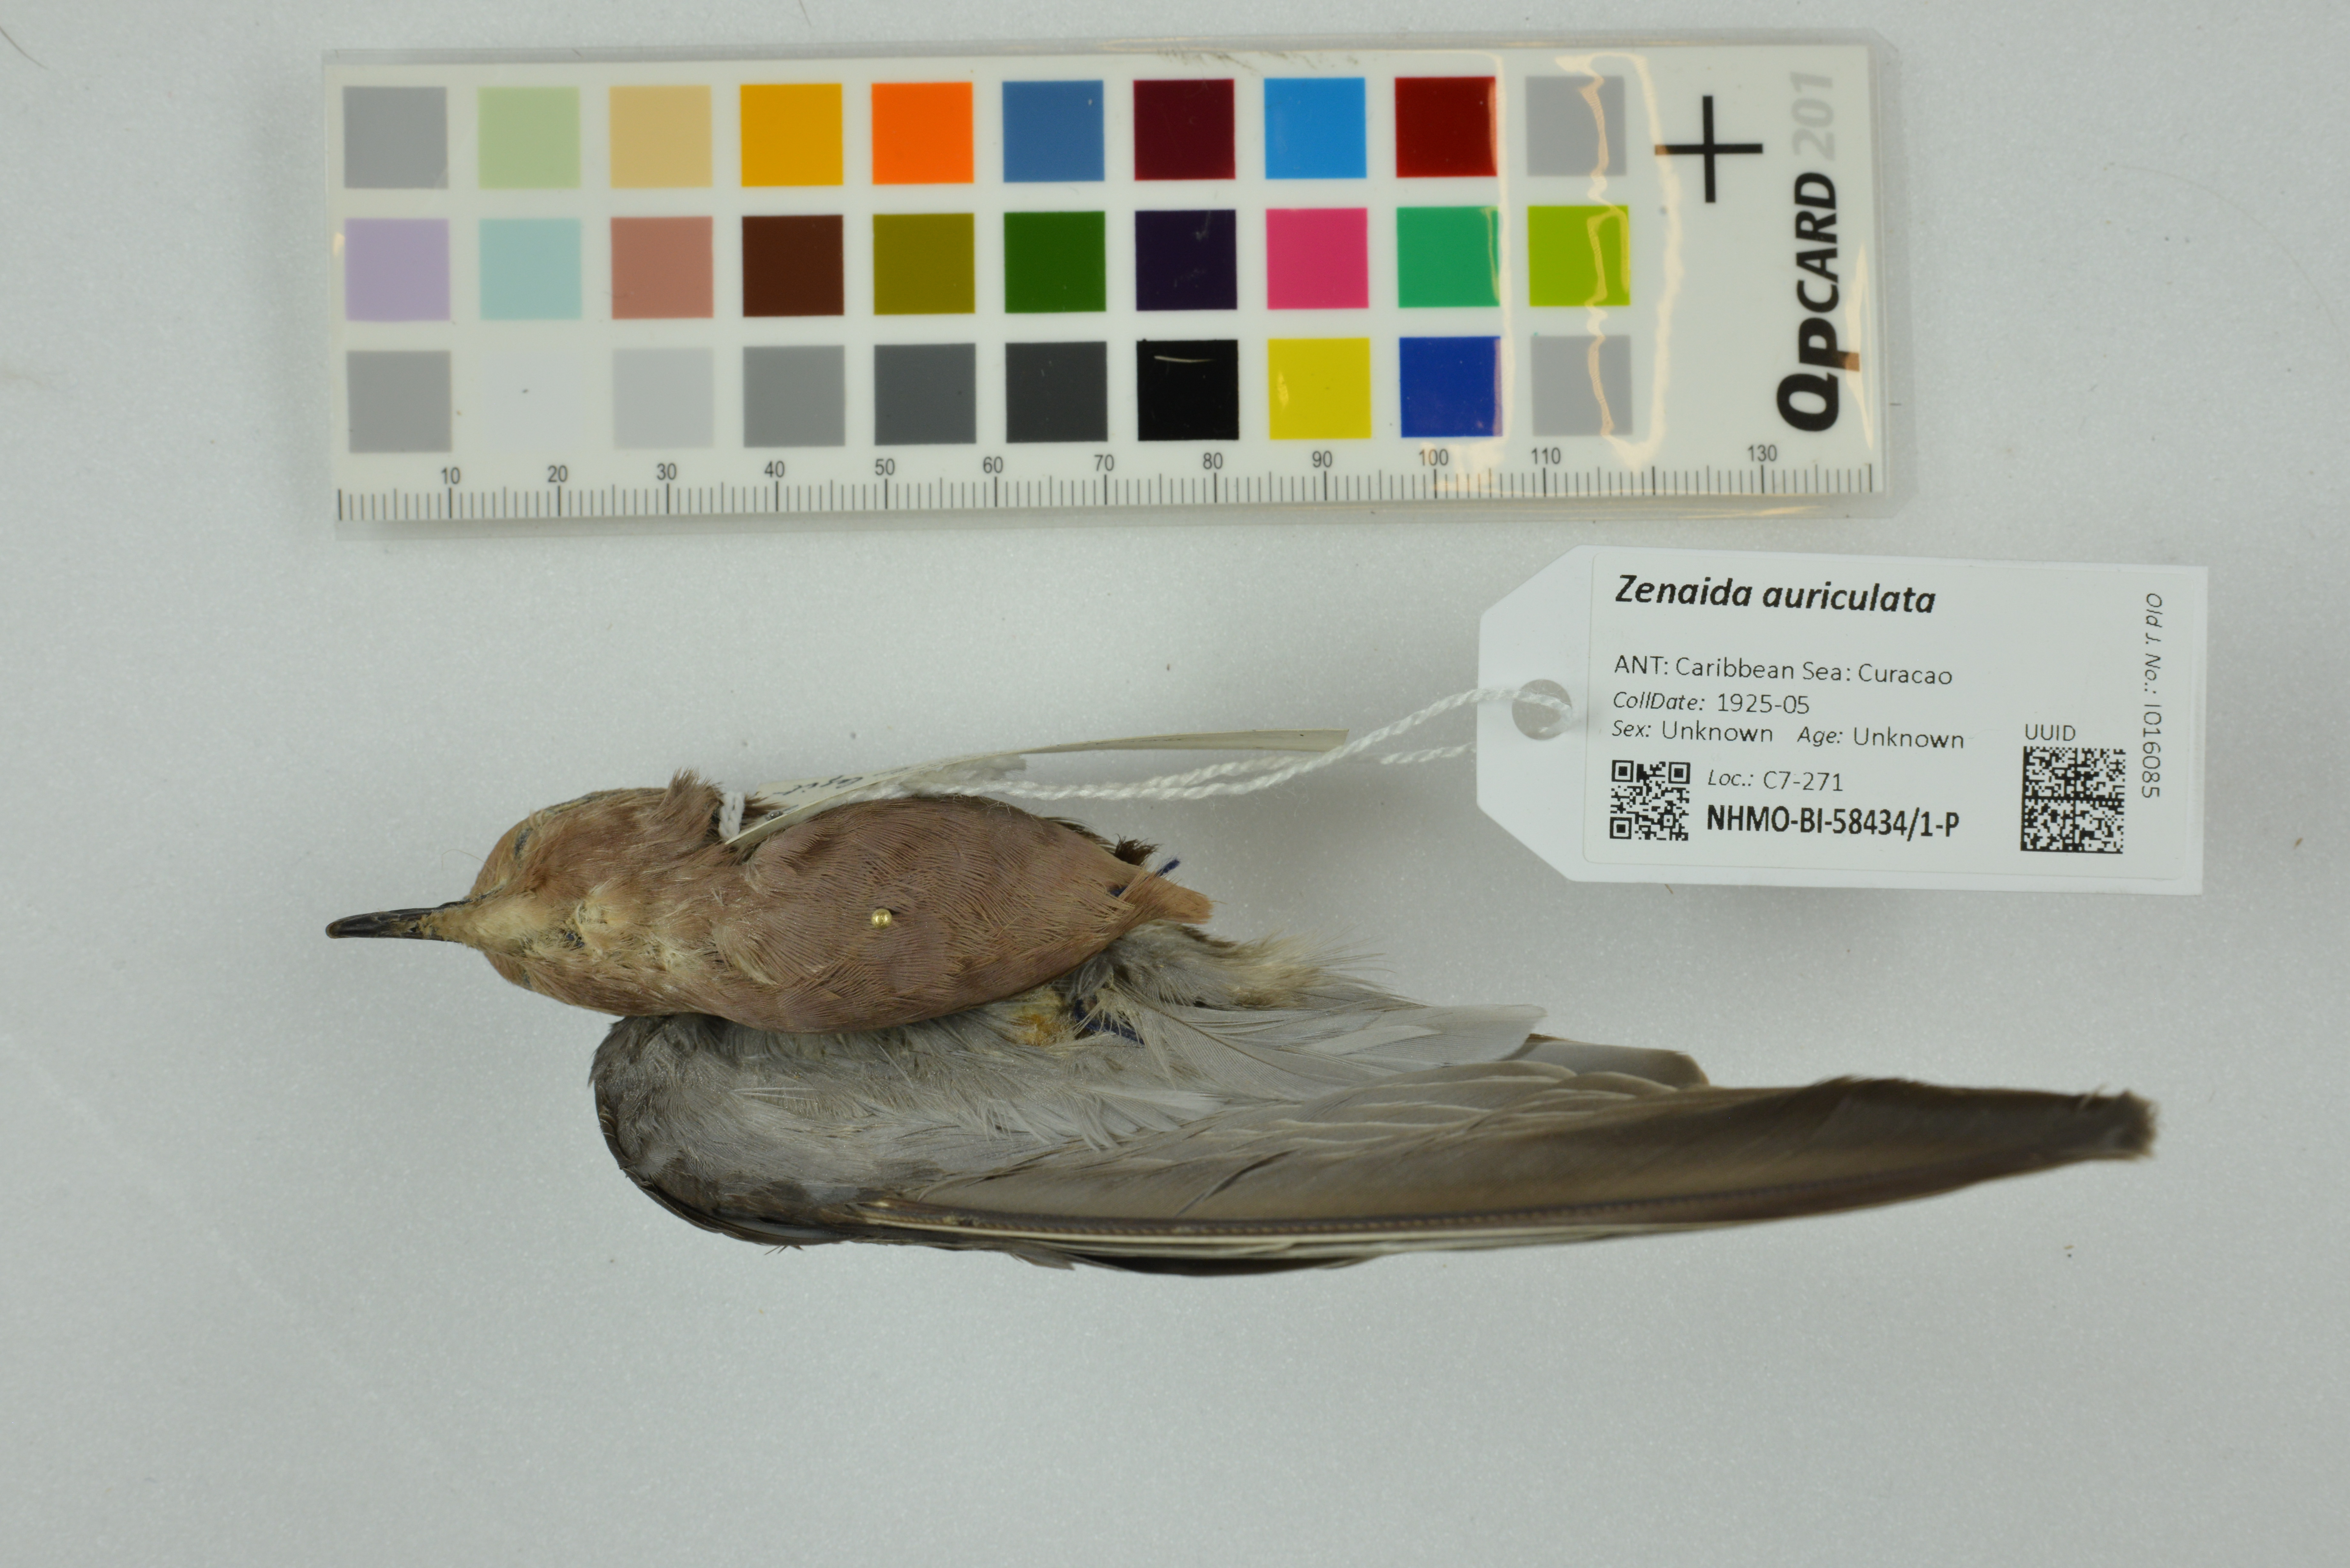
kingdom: Animalia
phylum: Chordata
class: Aves
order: Columbiformes
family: Columbidae
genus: Zenaida
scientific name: Zenaida auriculata
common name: Eared dove
